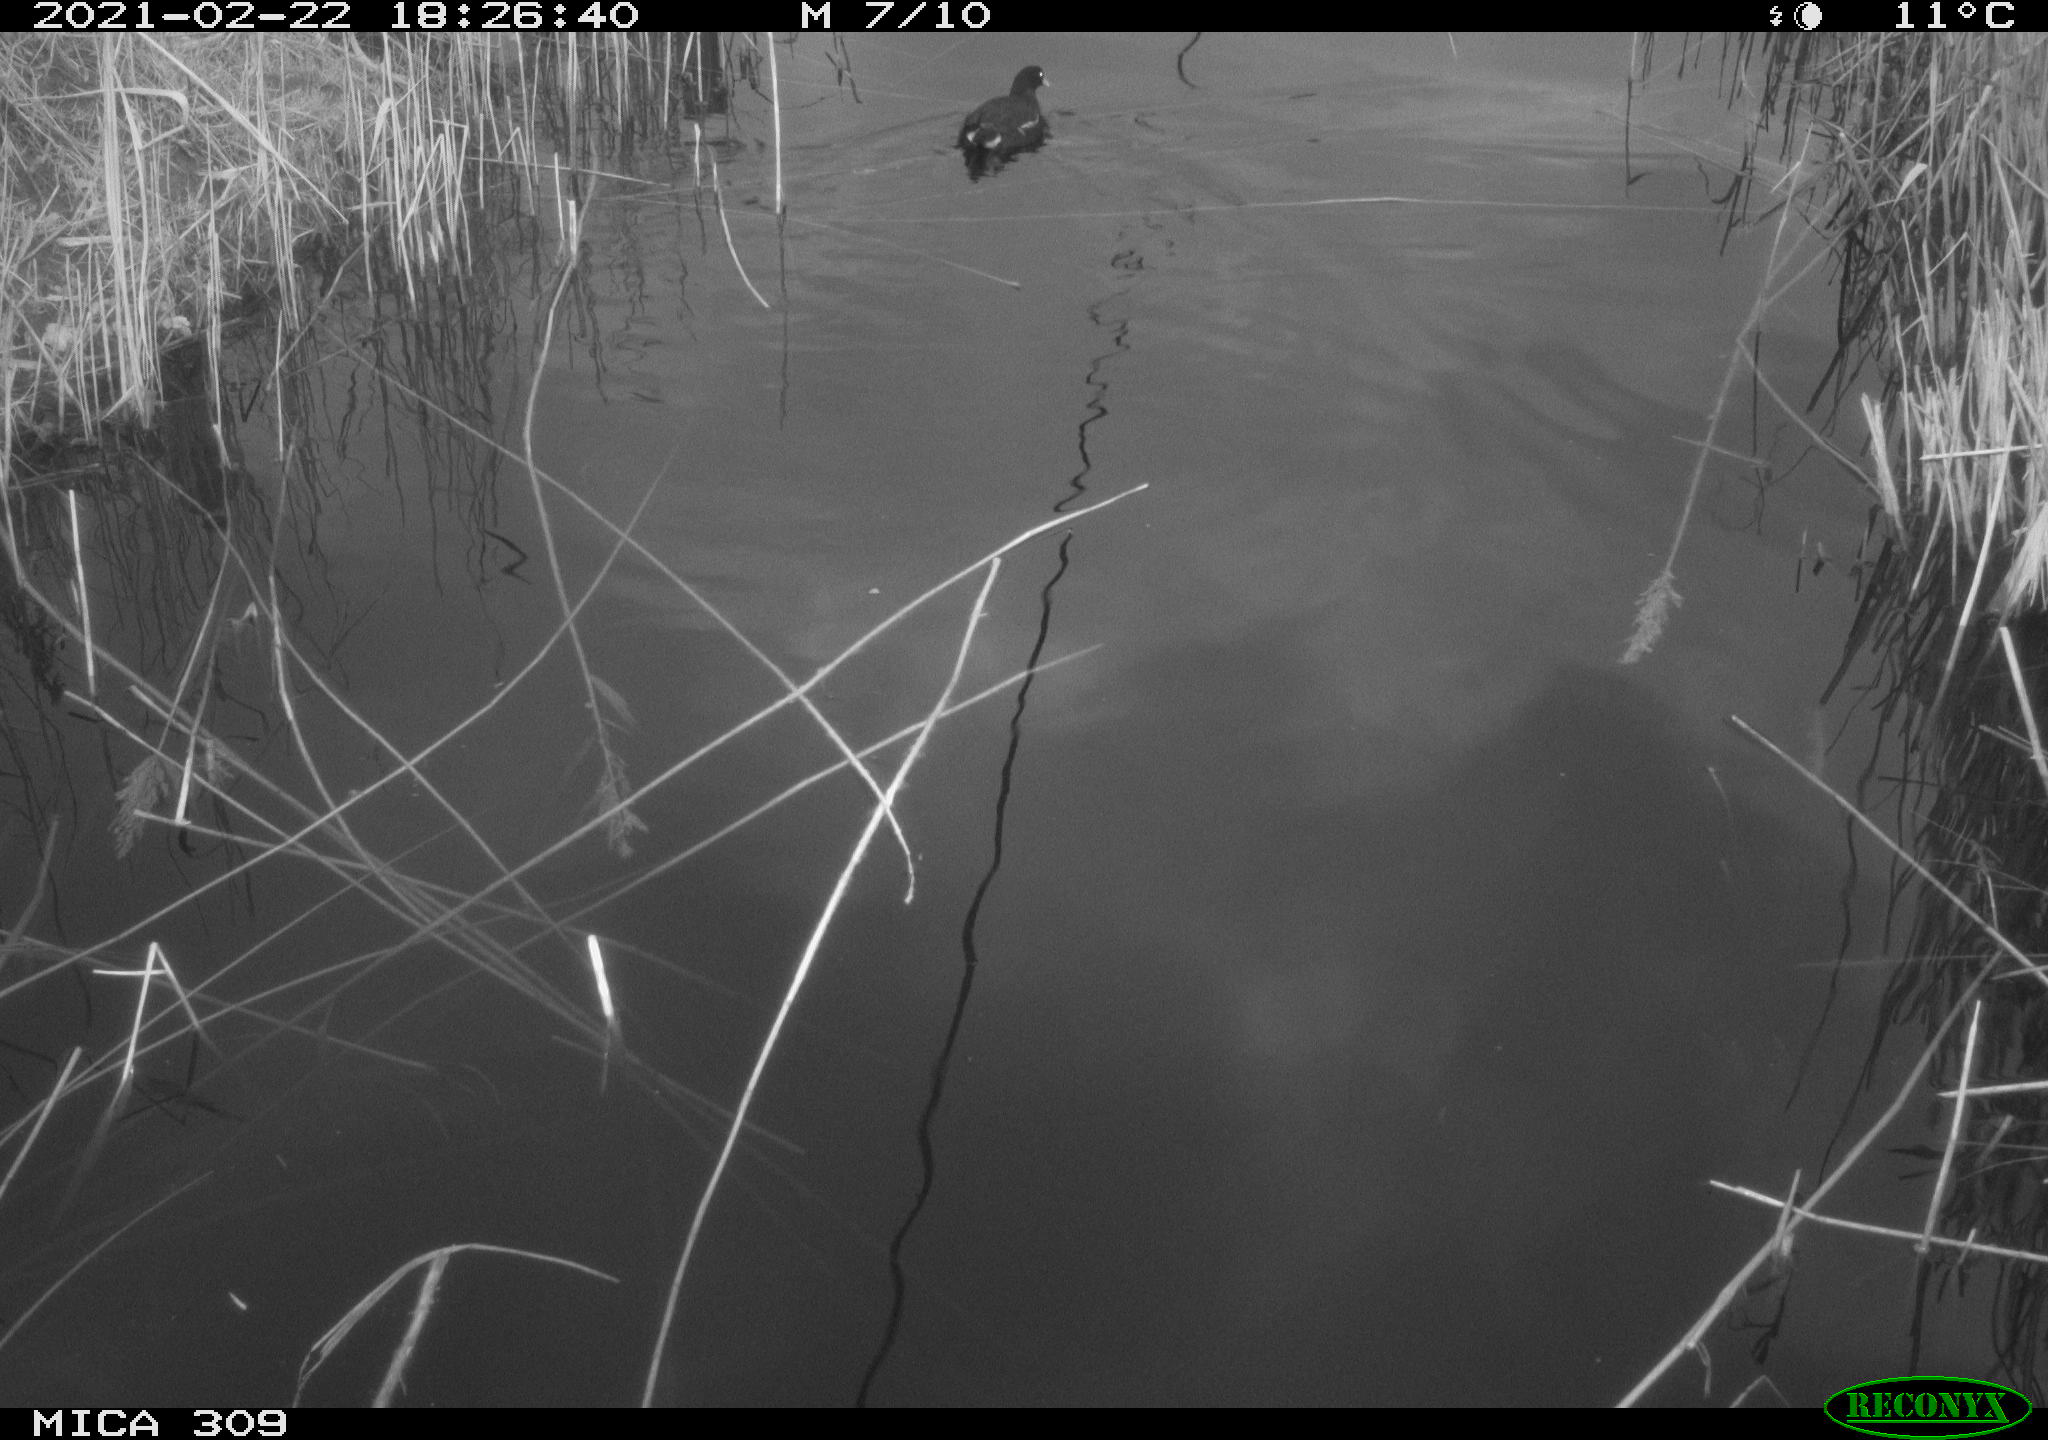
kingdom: Animalia
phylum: Chordata
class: Aves
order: Gruiformes
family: Rallidae
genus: Gallinula
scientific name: Gallinula chloropus
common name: Common moorhen
